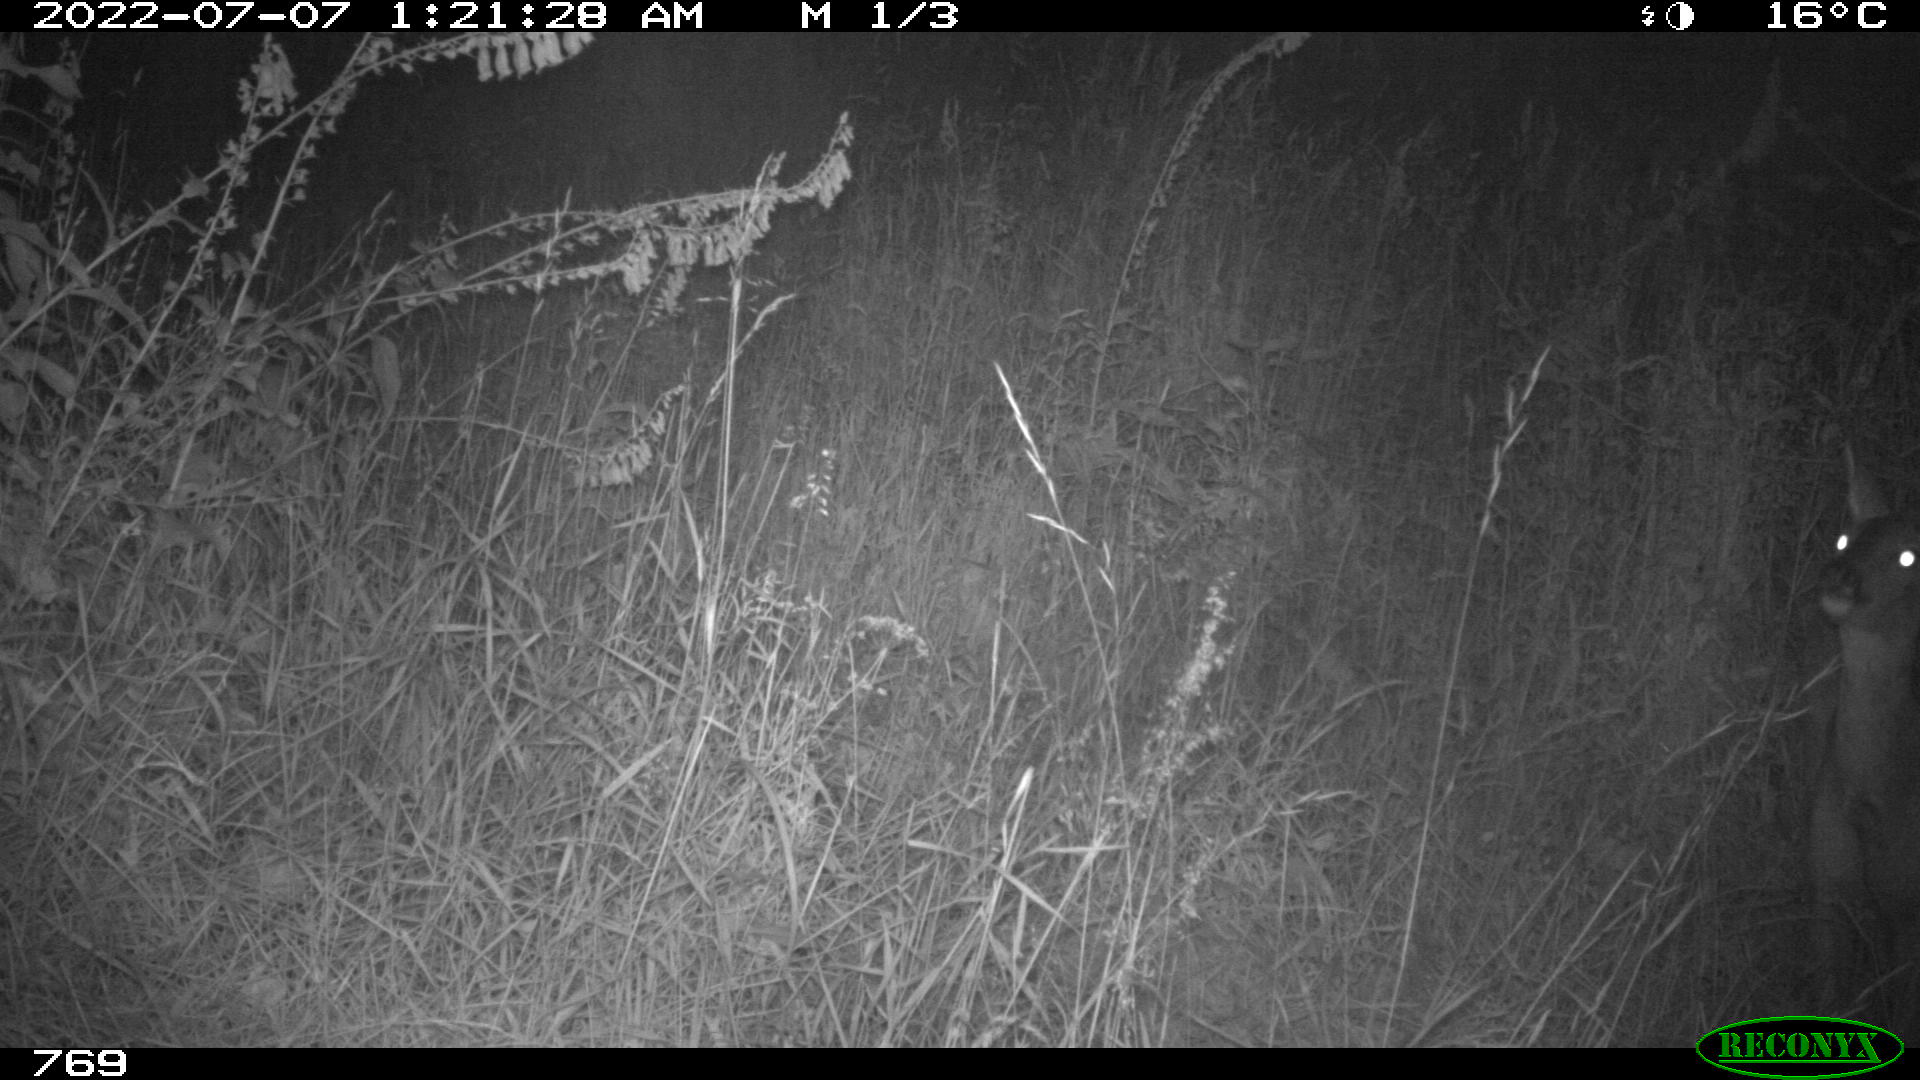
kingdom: Animalia
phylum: Chordata
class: Mammalia
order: Artiodactyla
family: Cervidae
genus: Capreolus
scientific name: Capreolus capreolus
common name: Western roe deer
